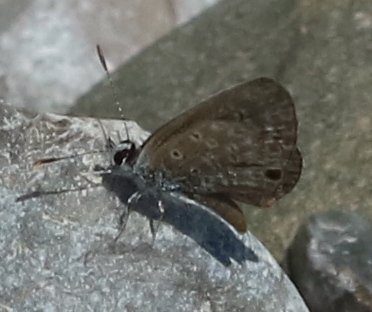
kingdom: Animalia
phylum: Arthropoda
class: Insecta
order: Lepidoptera
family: Lycaenidae
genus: Hemiargus
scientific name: Hemiargus ceraunus
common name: Ceraunus Blue
